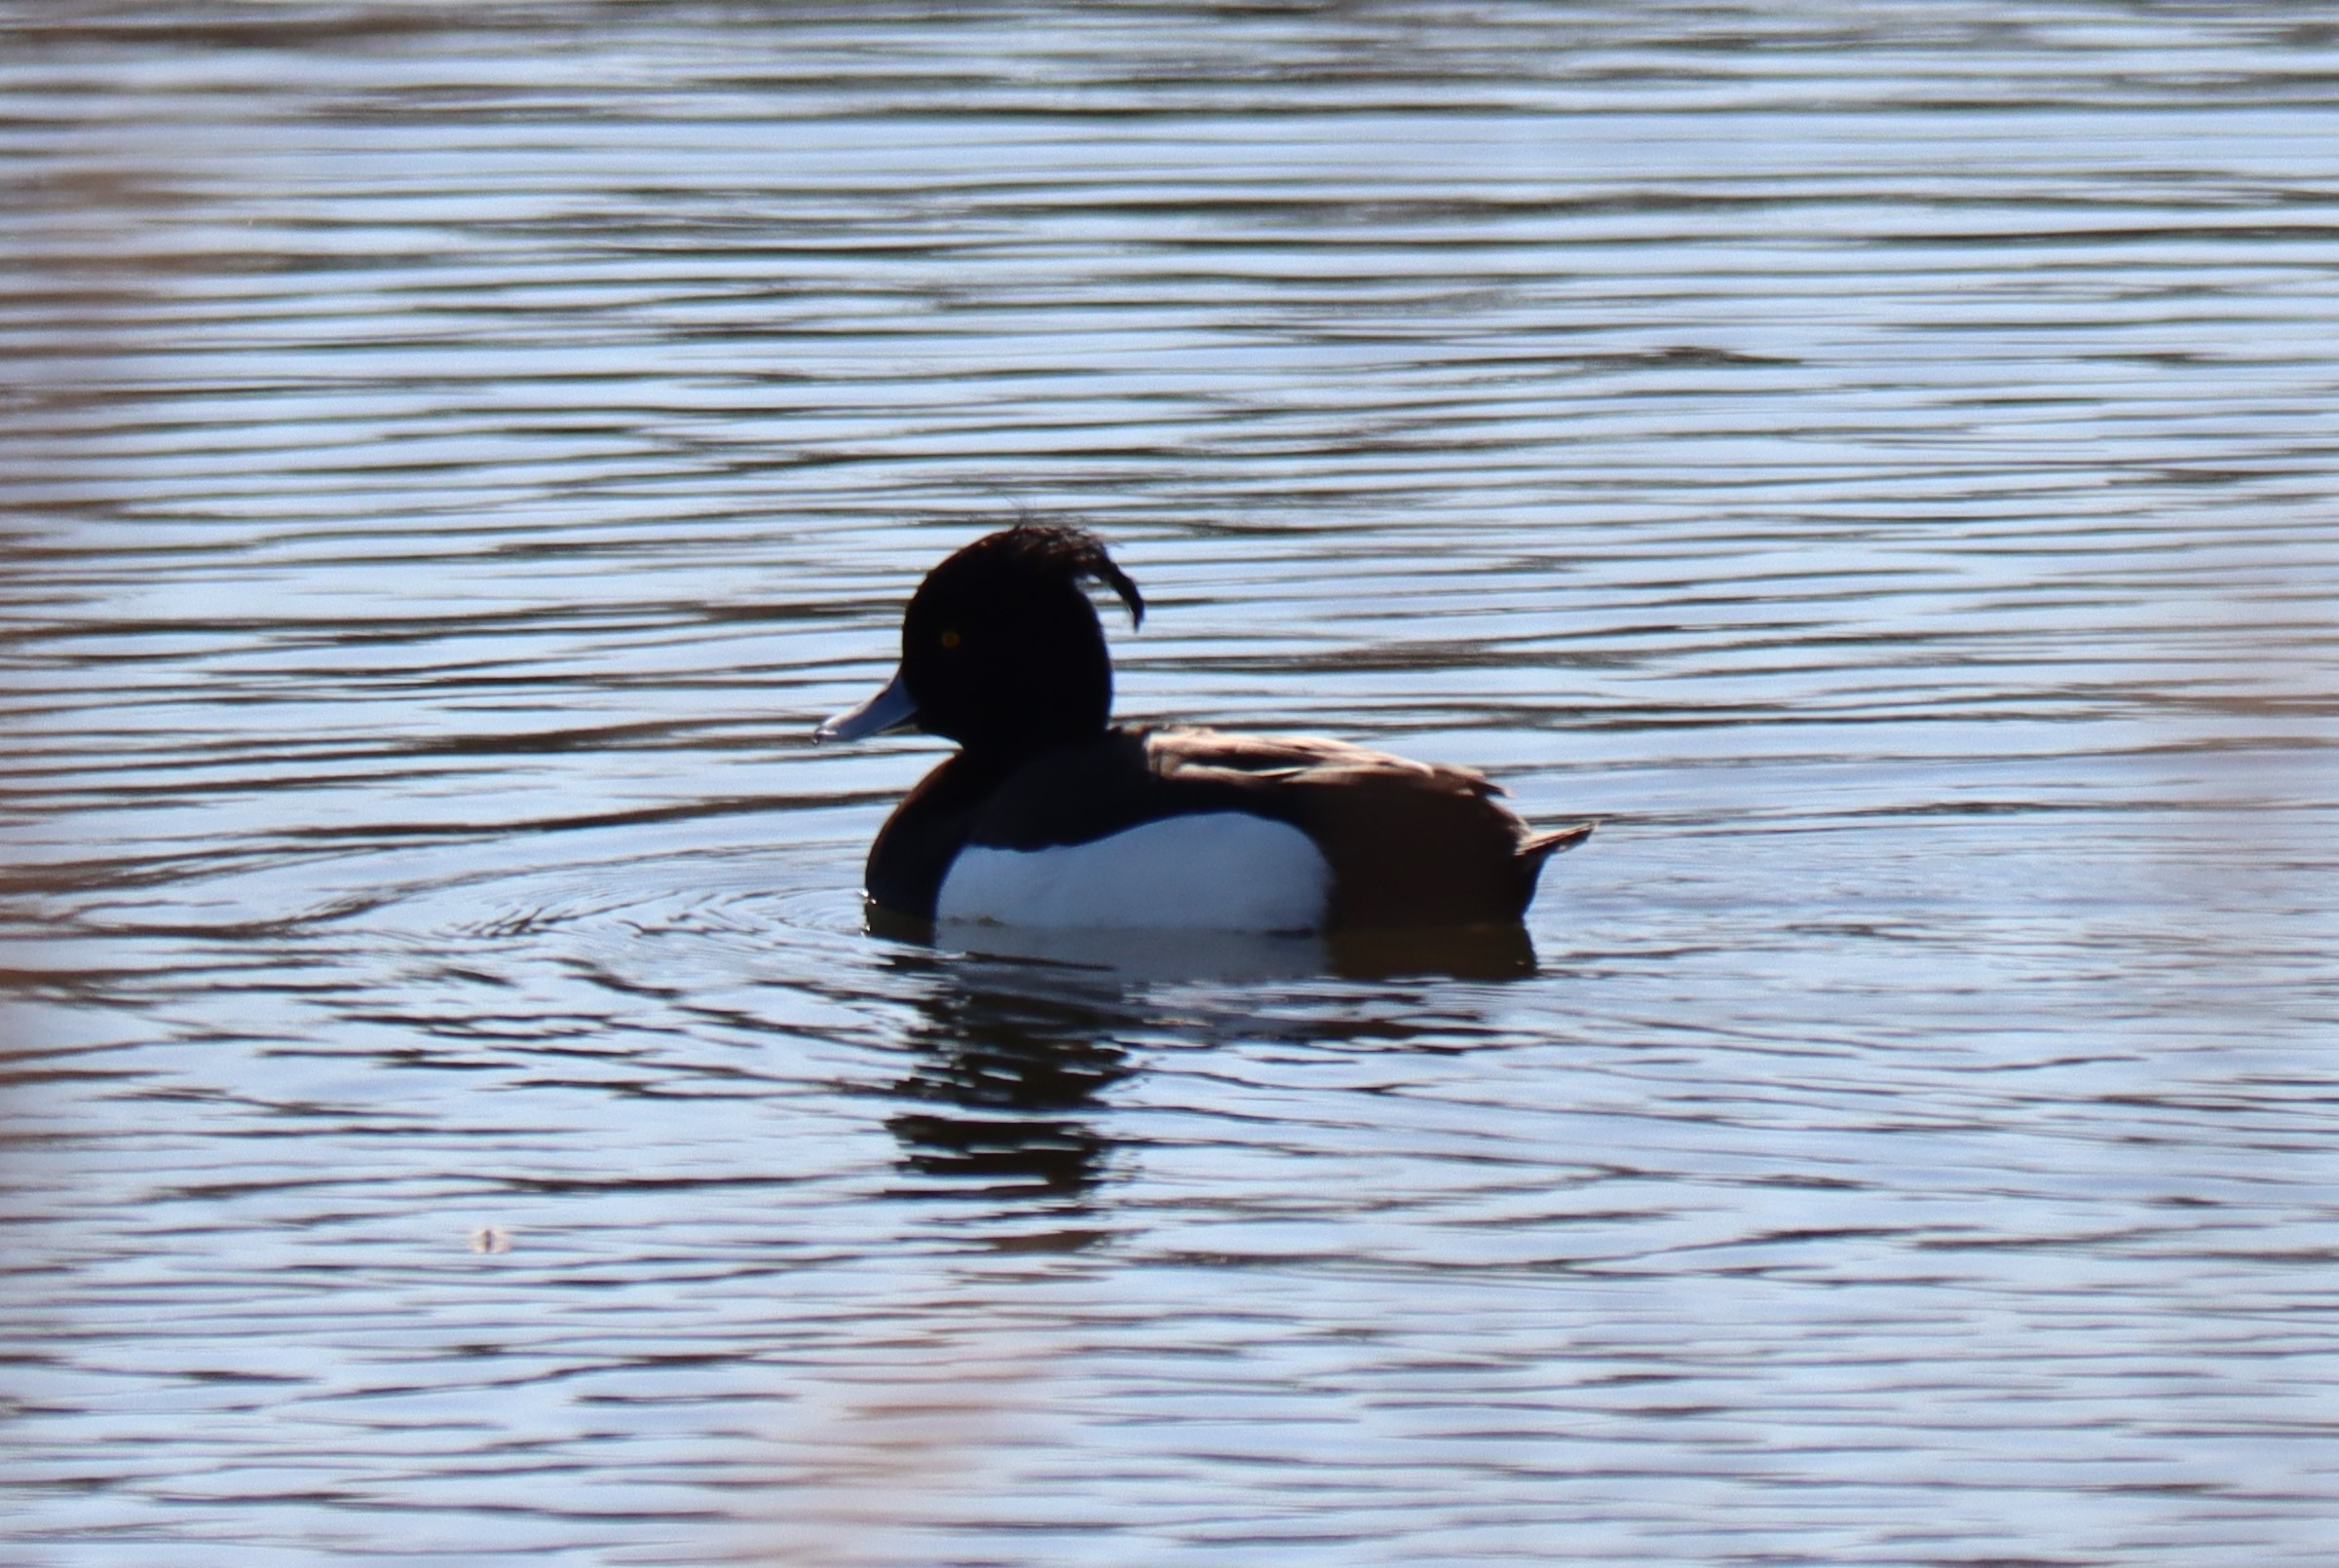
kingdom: Animalia
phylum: Chordata
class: Aves
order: Anseriformes
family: Anatidae
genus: Aythya
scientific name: Aythya fuligula
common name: Troldand
